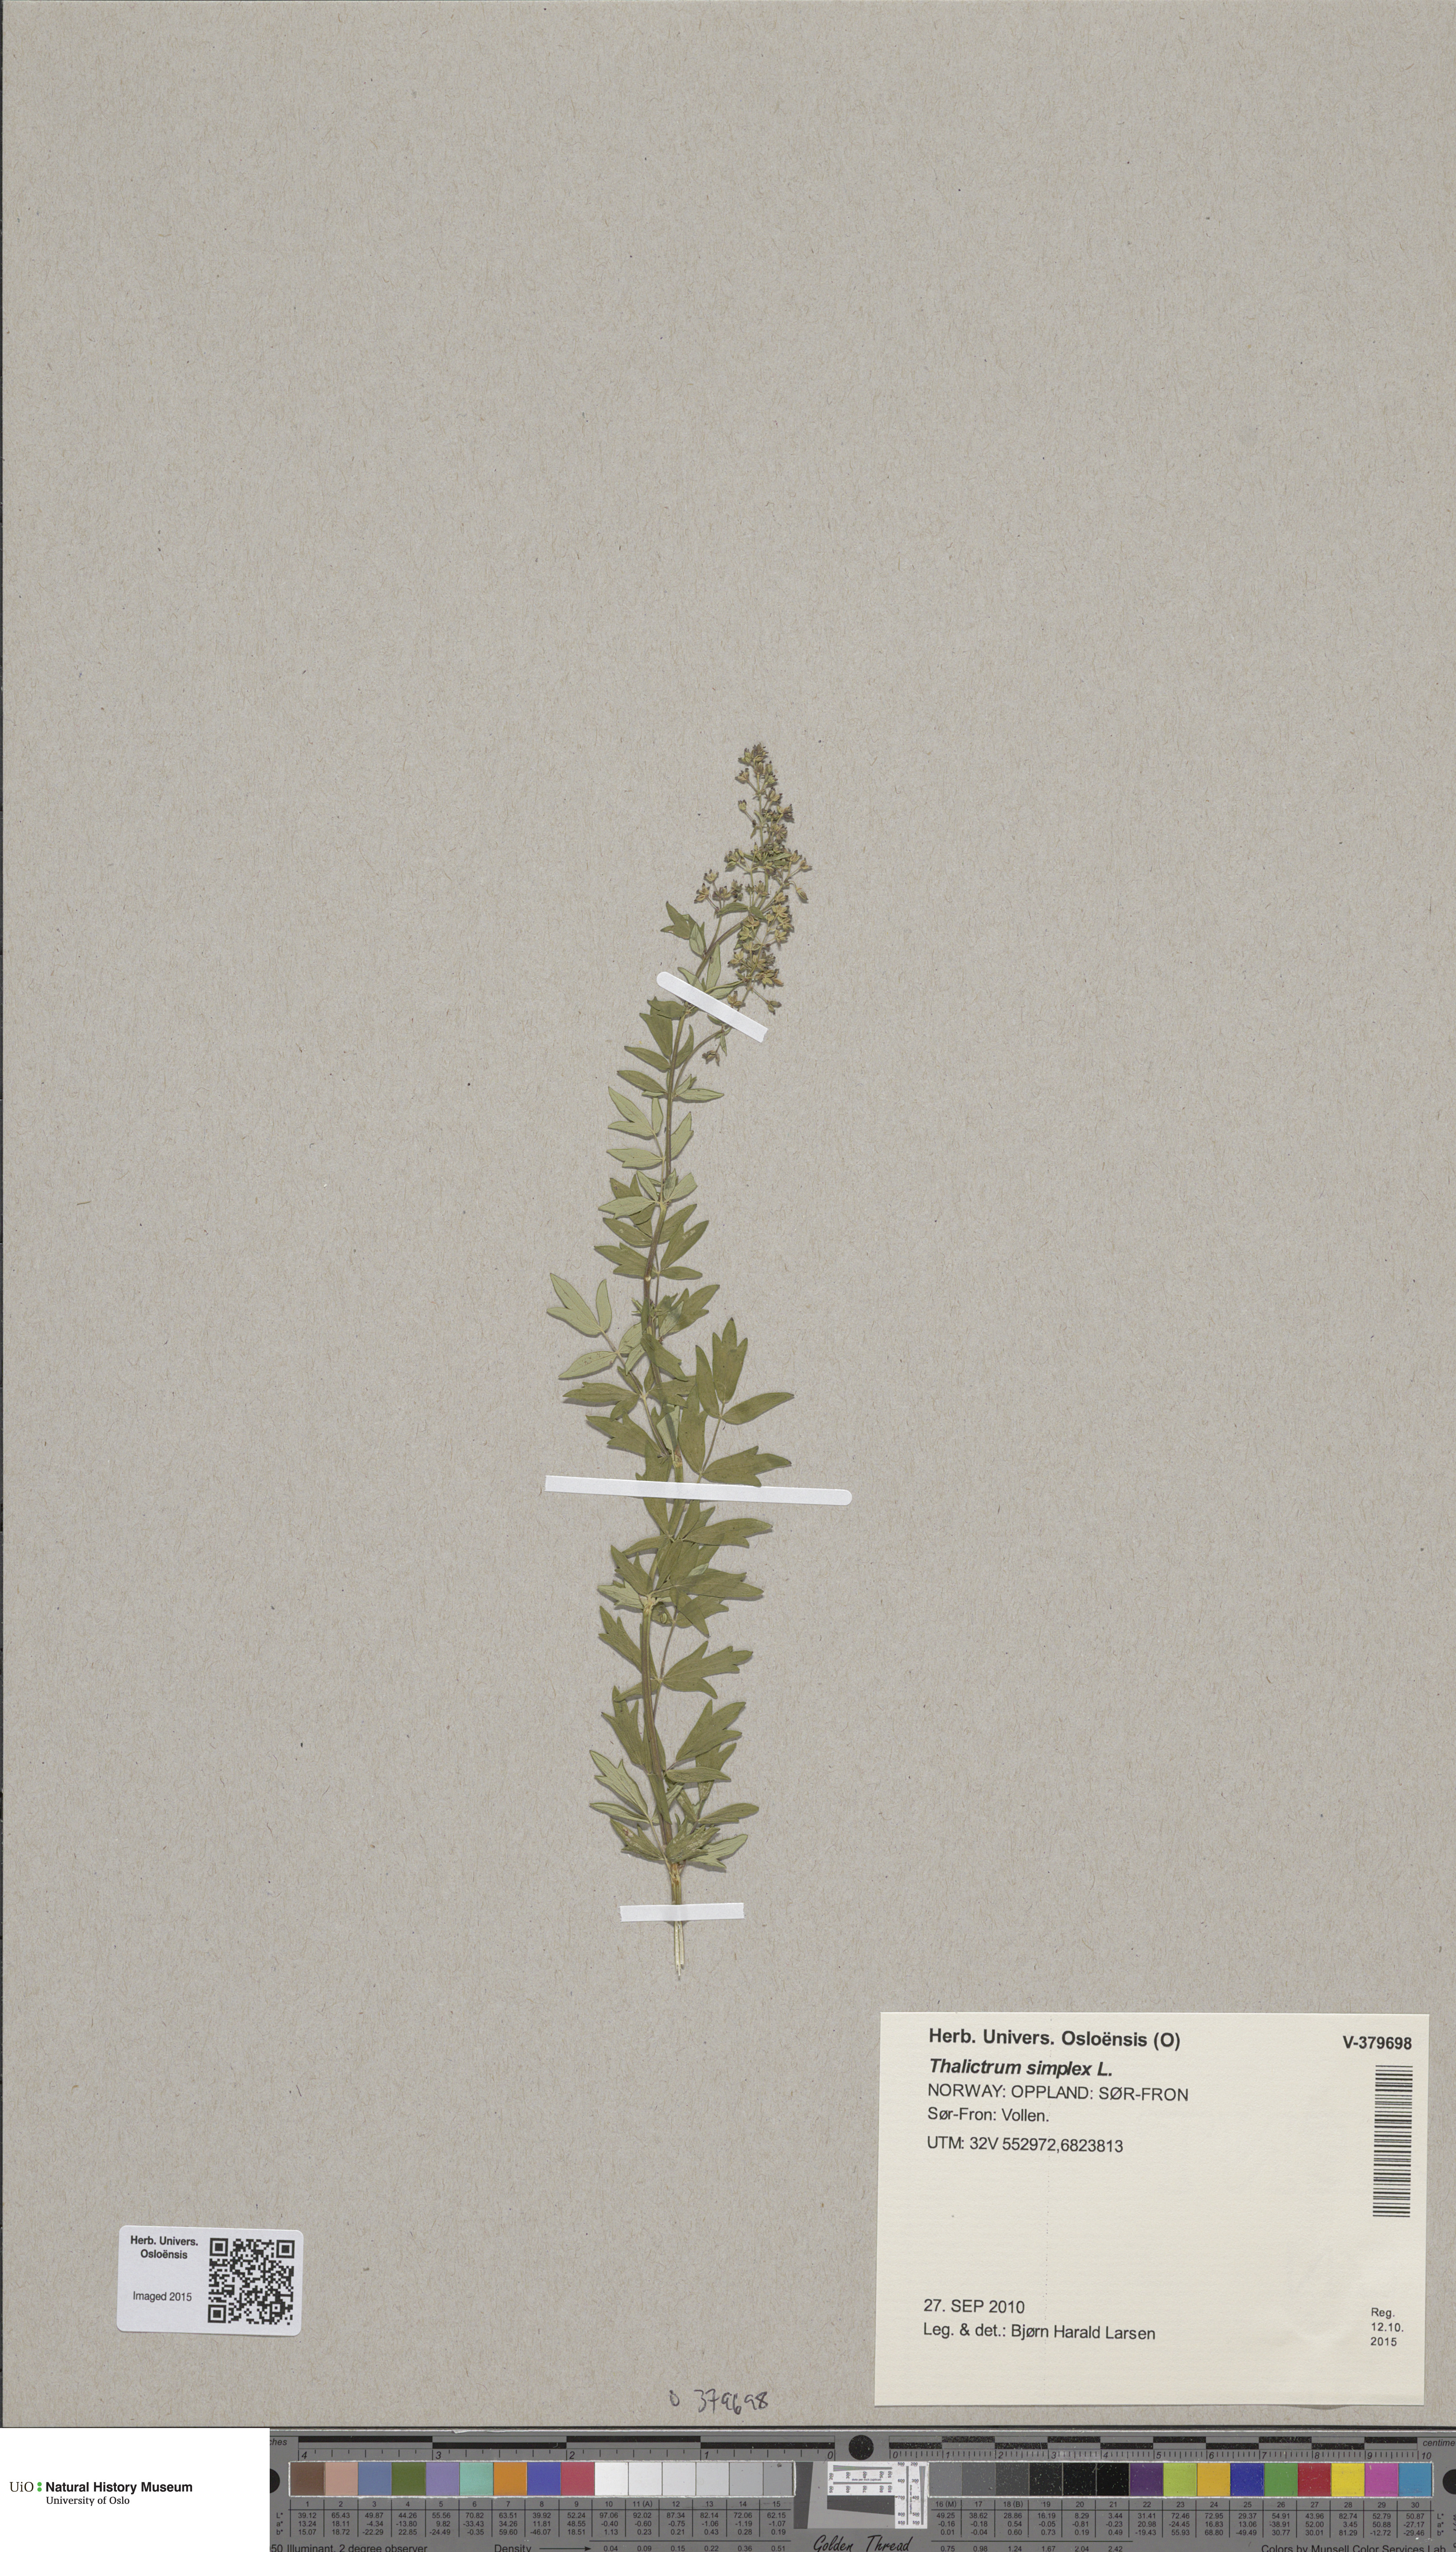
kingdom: Plantae
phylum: Tracheophyta
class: Magnoliopsida
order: Ranunculales
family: Ranunculaceae
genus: Thalictrum
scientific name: Thalictrum simplex
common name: Small meadow-rue
